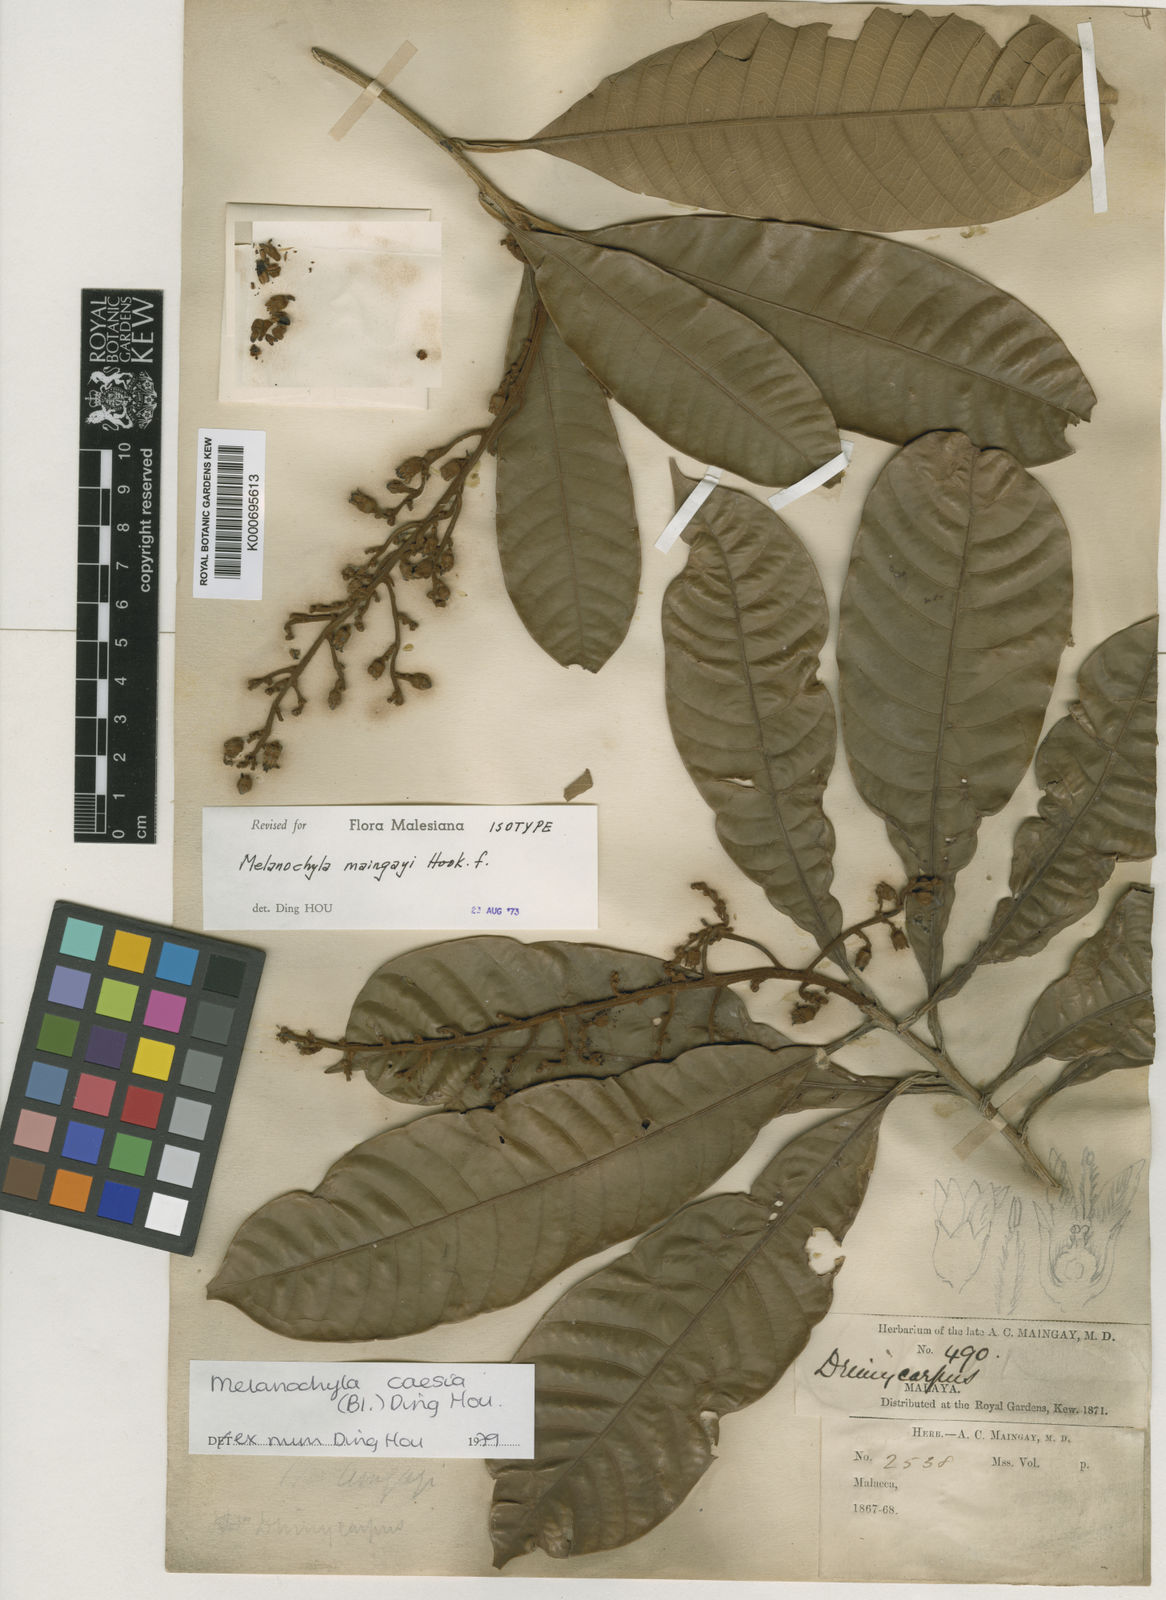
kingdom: Plantae
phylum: Tracheophyta
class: Magnoliopsida
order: Sapindales
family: Anacardiaceae
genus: Melanochyla
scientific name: Melanochyla caesia
